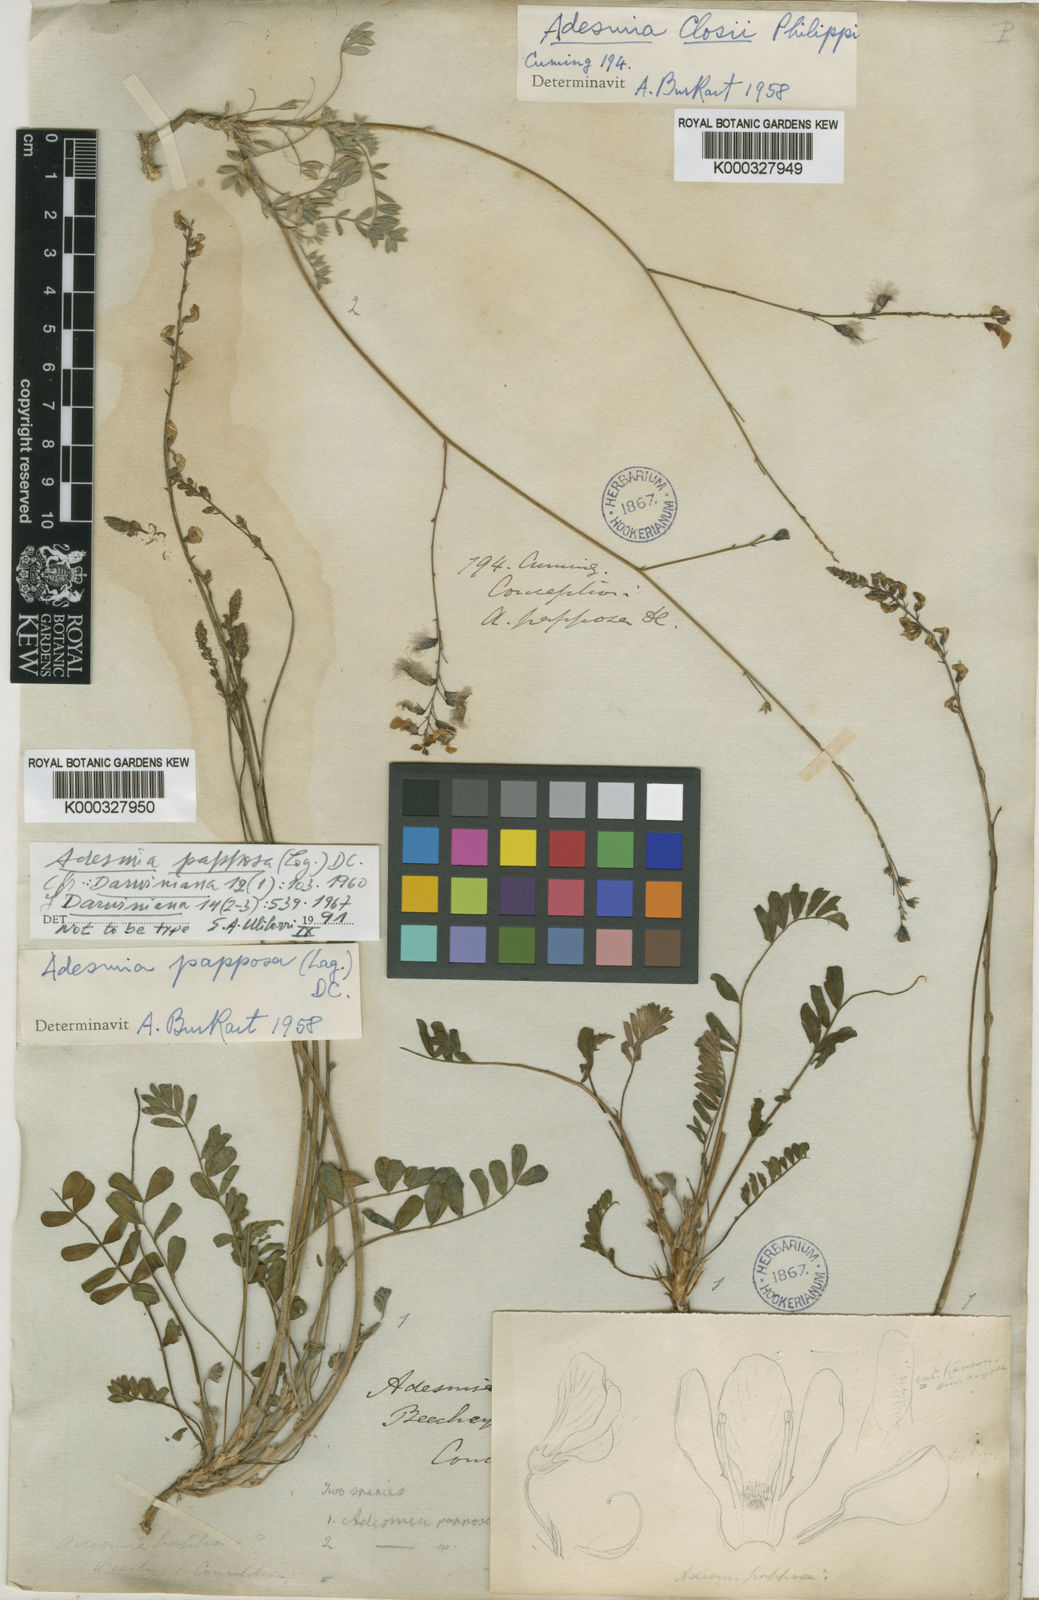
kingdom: Plantae
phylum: Tracheophyta
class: Magnoliopsida
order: Fabales
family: Fabaceae
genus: Adesmia
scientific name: Adesmia papposa
